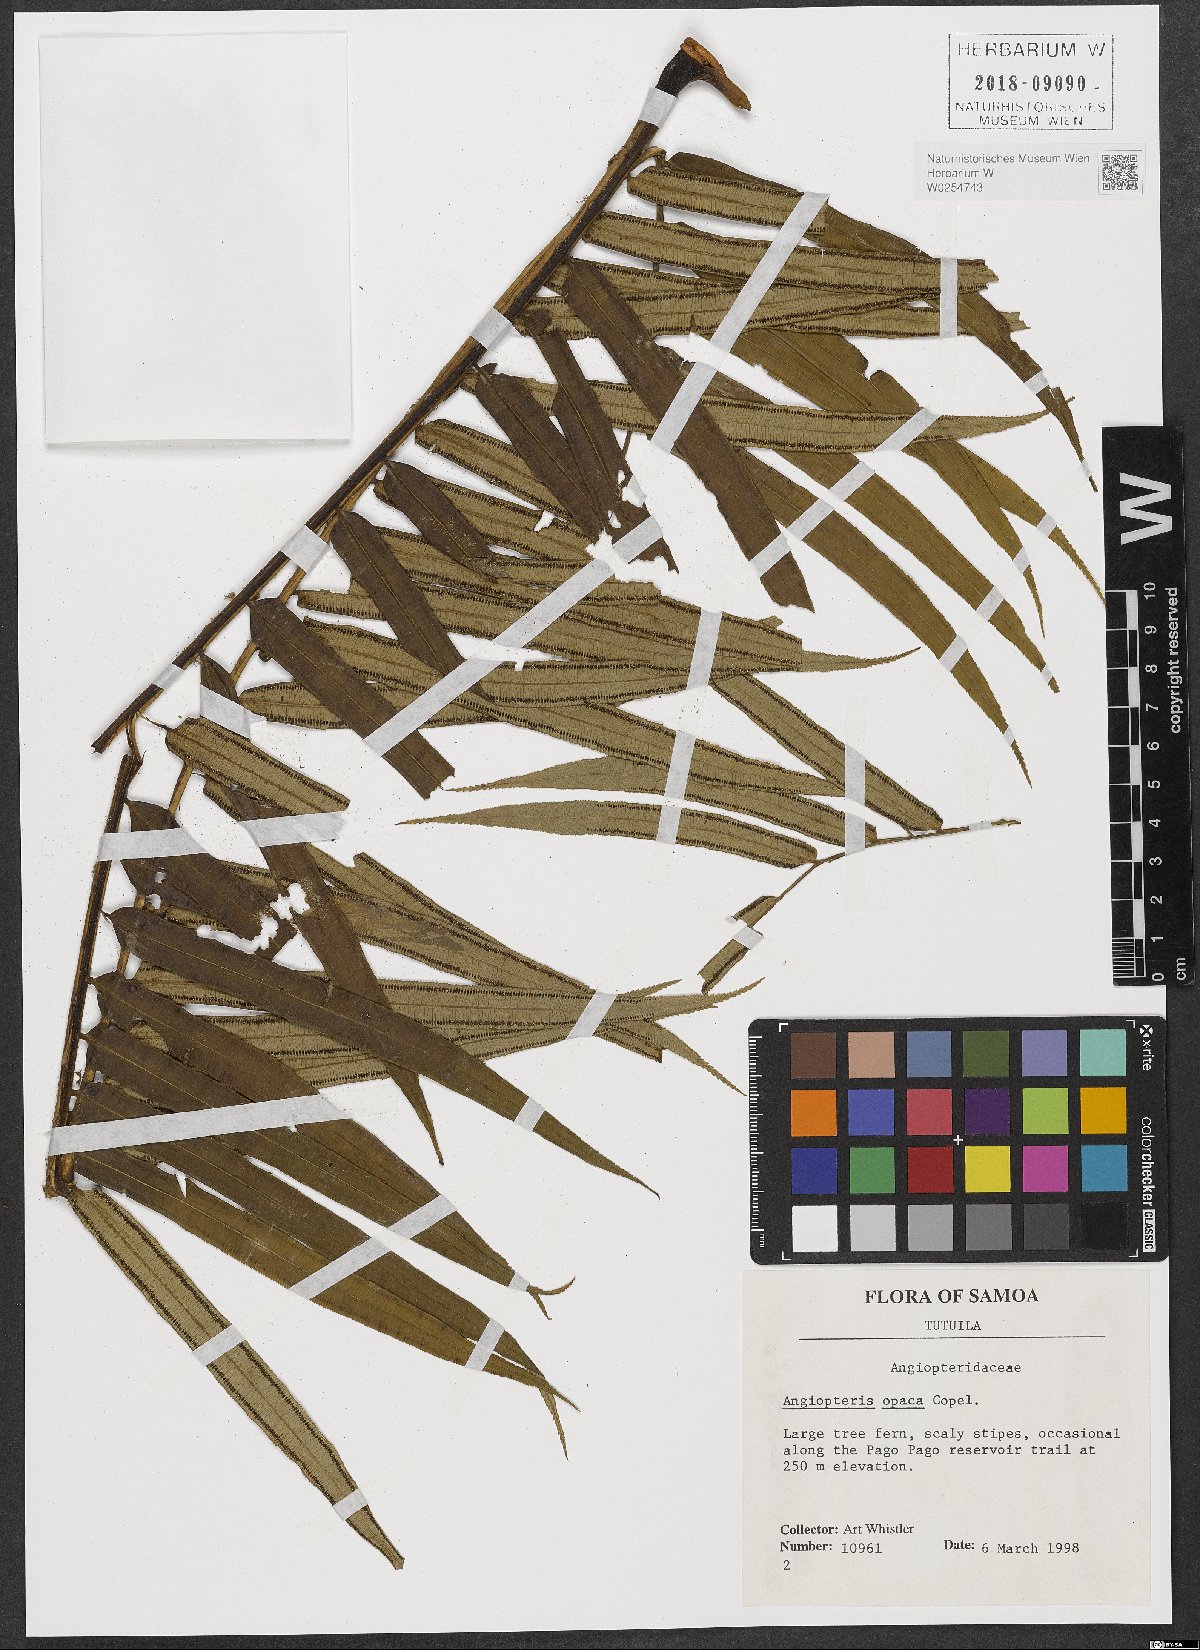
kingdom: Plantae
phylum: Tracheophyta
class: Polypodiopsida
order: Marattiales
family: Marattiaceae
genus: Angiopteris
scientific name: Angiopteris opaca
